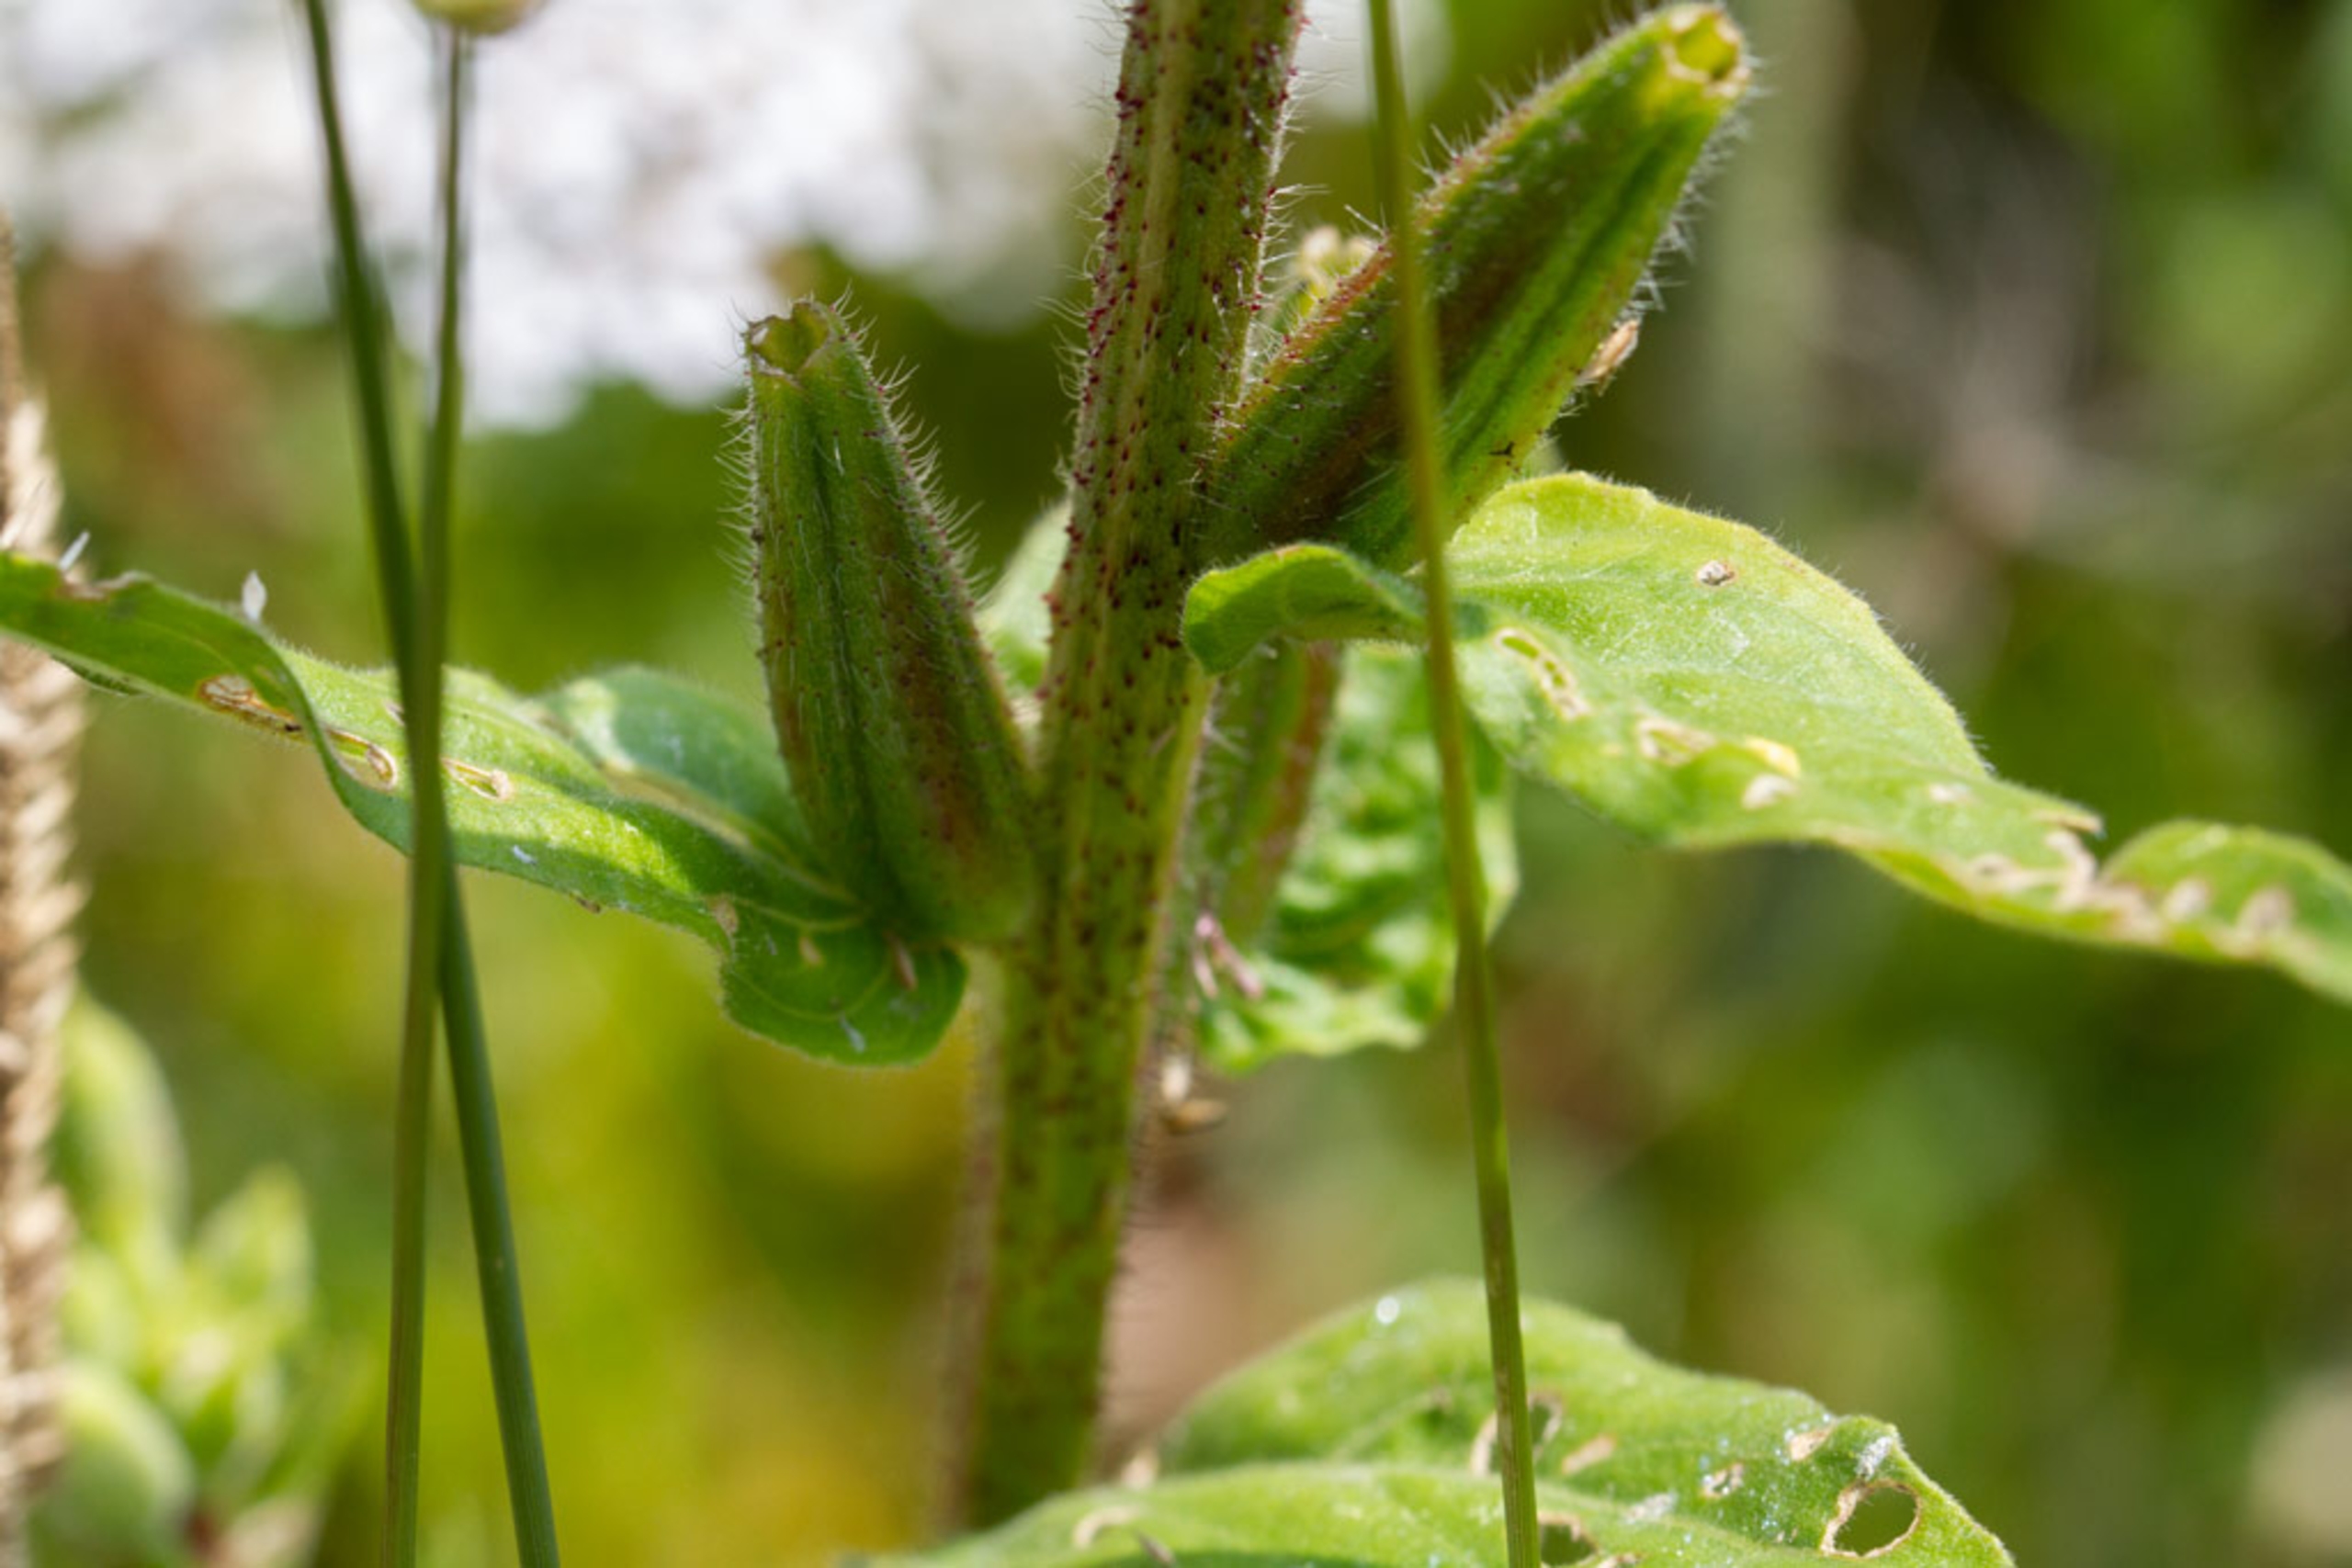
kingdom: Plantae
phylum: Tracheophyta
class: Magnoliopsida
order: Myrtales
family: Onagraceae
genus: Oenothera
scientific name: Oenothera biennis
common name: Rødfrugtet natlys
